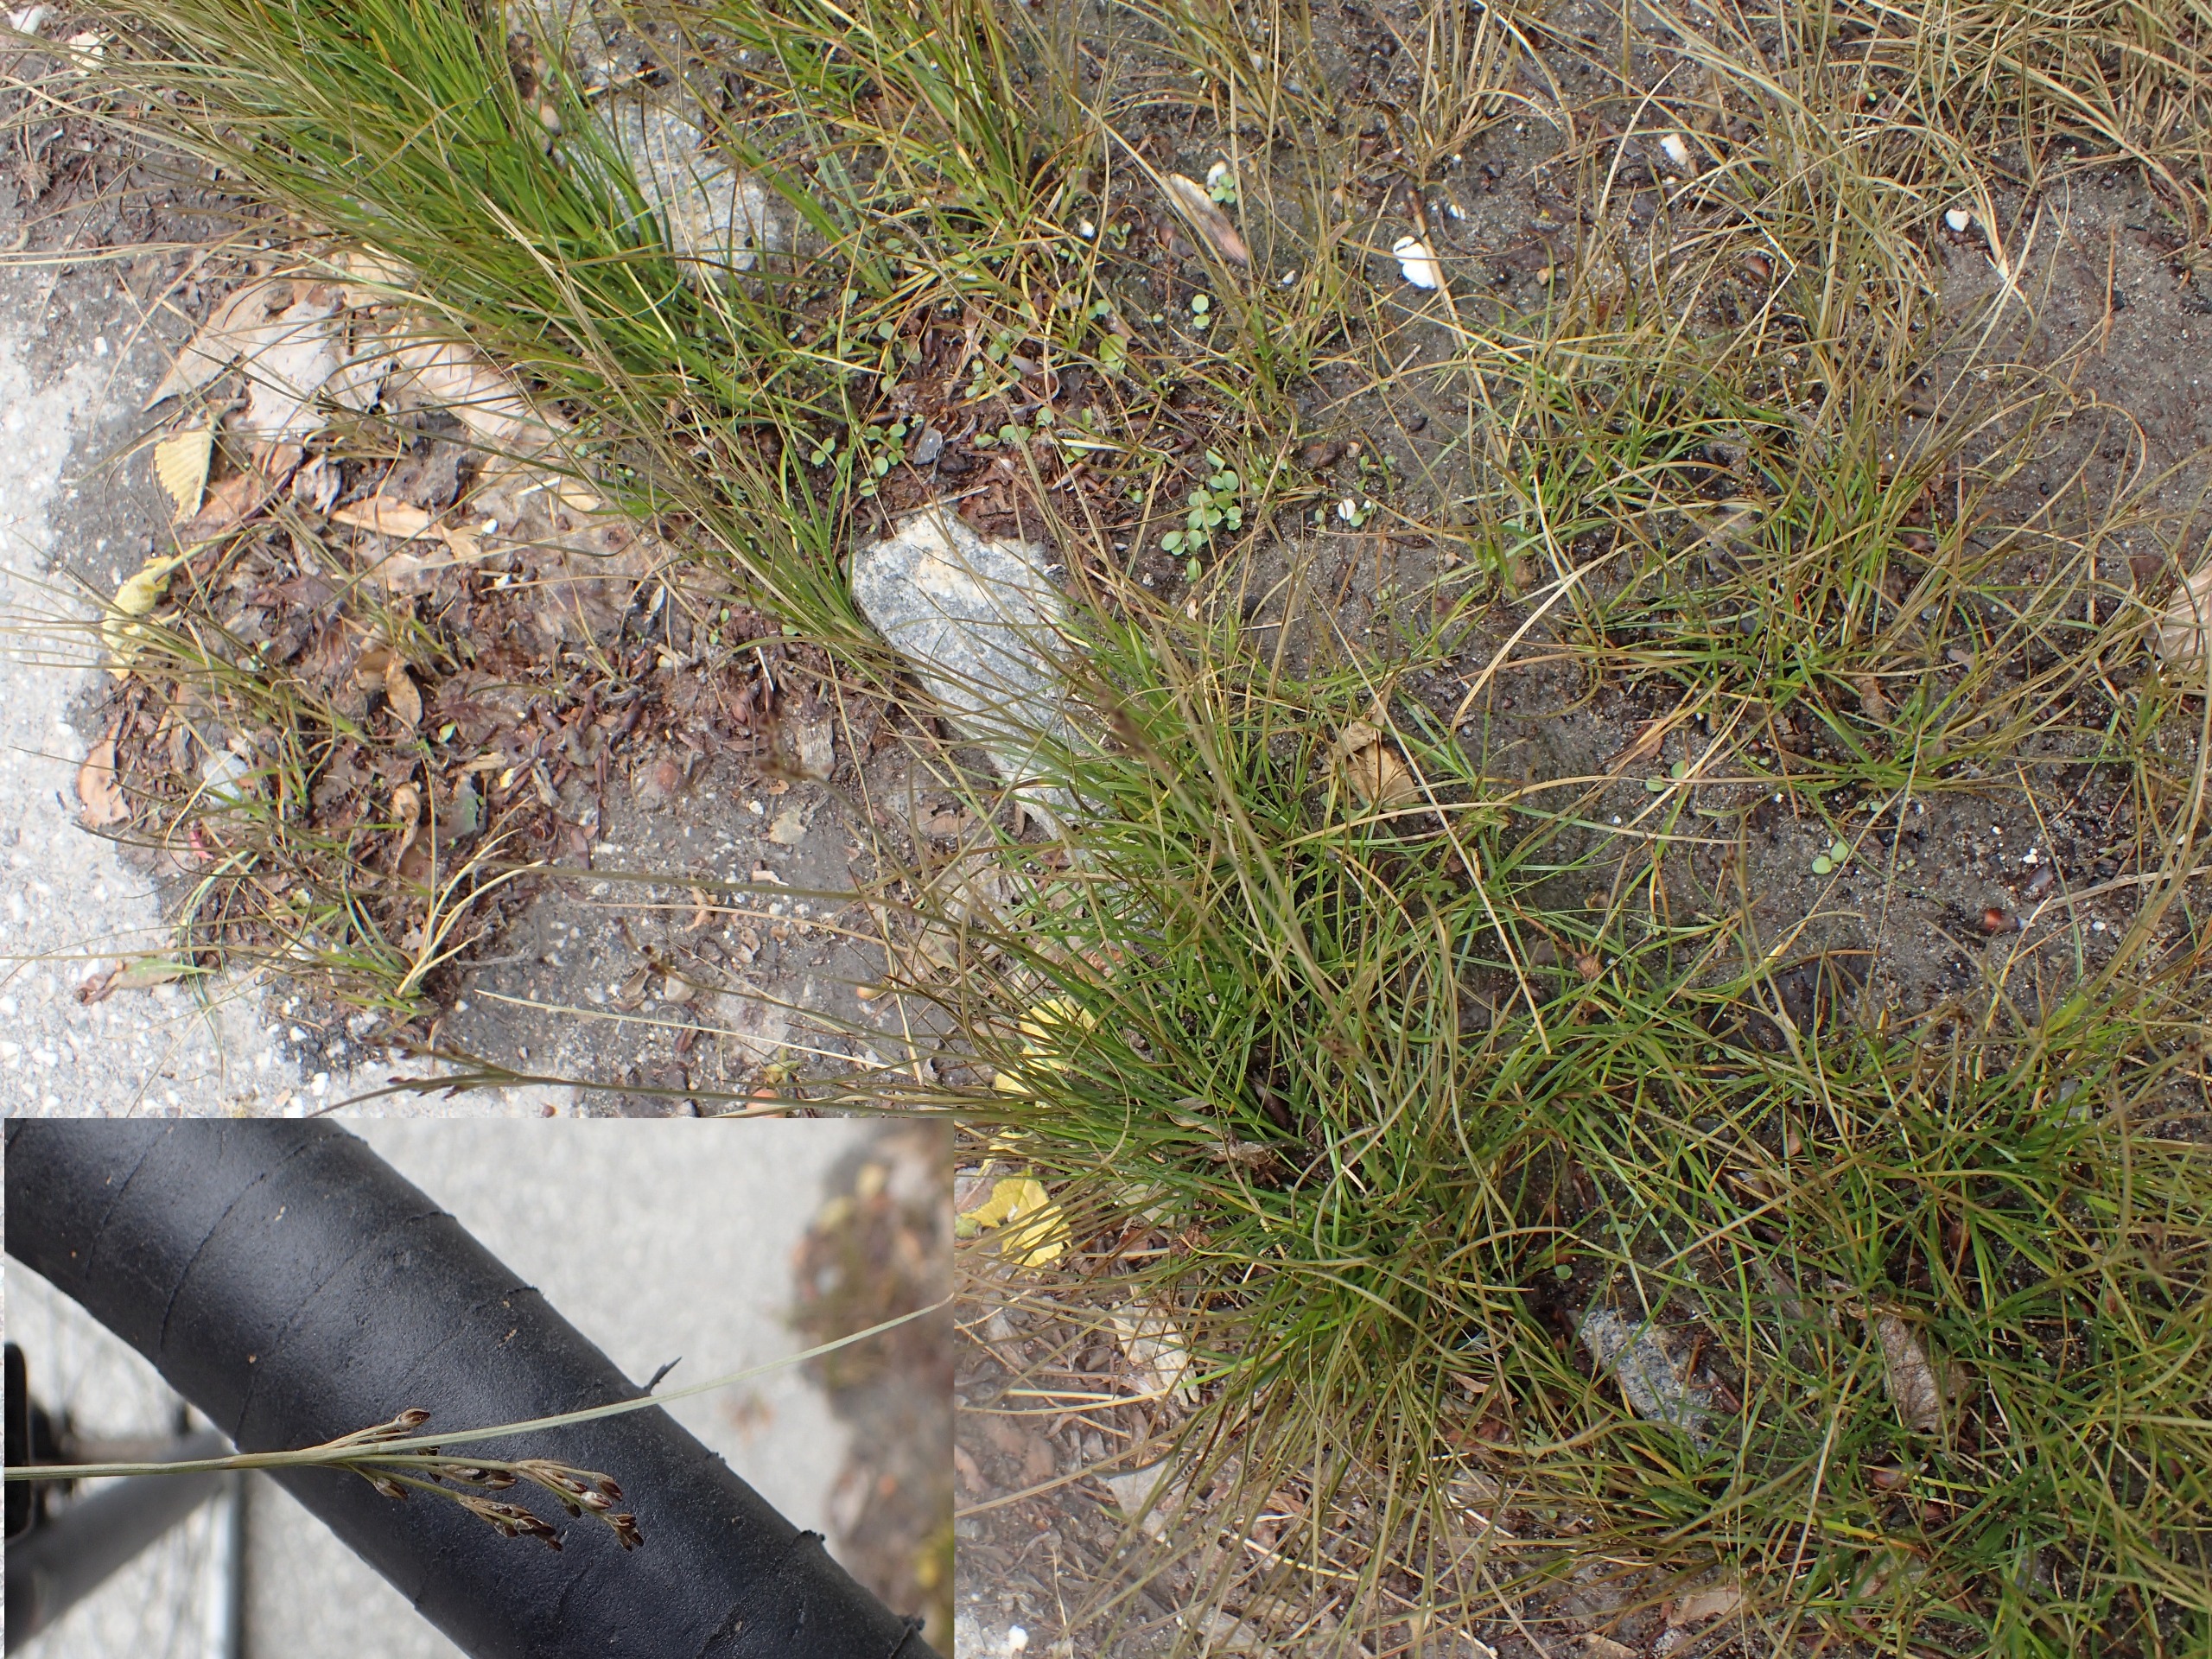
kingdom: Plantae
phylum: Tracheophyta
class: Liliopsida
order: Poales
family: Juncaceae
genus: Juncus
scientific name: Juncus compressus
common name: Fladstrået siv
